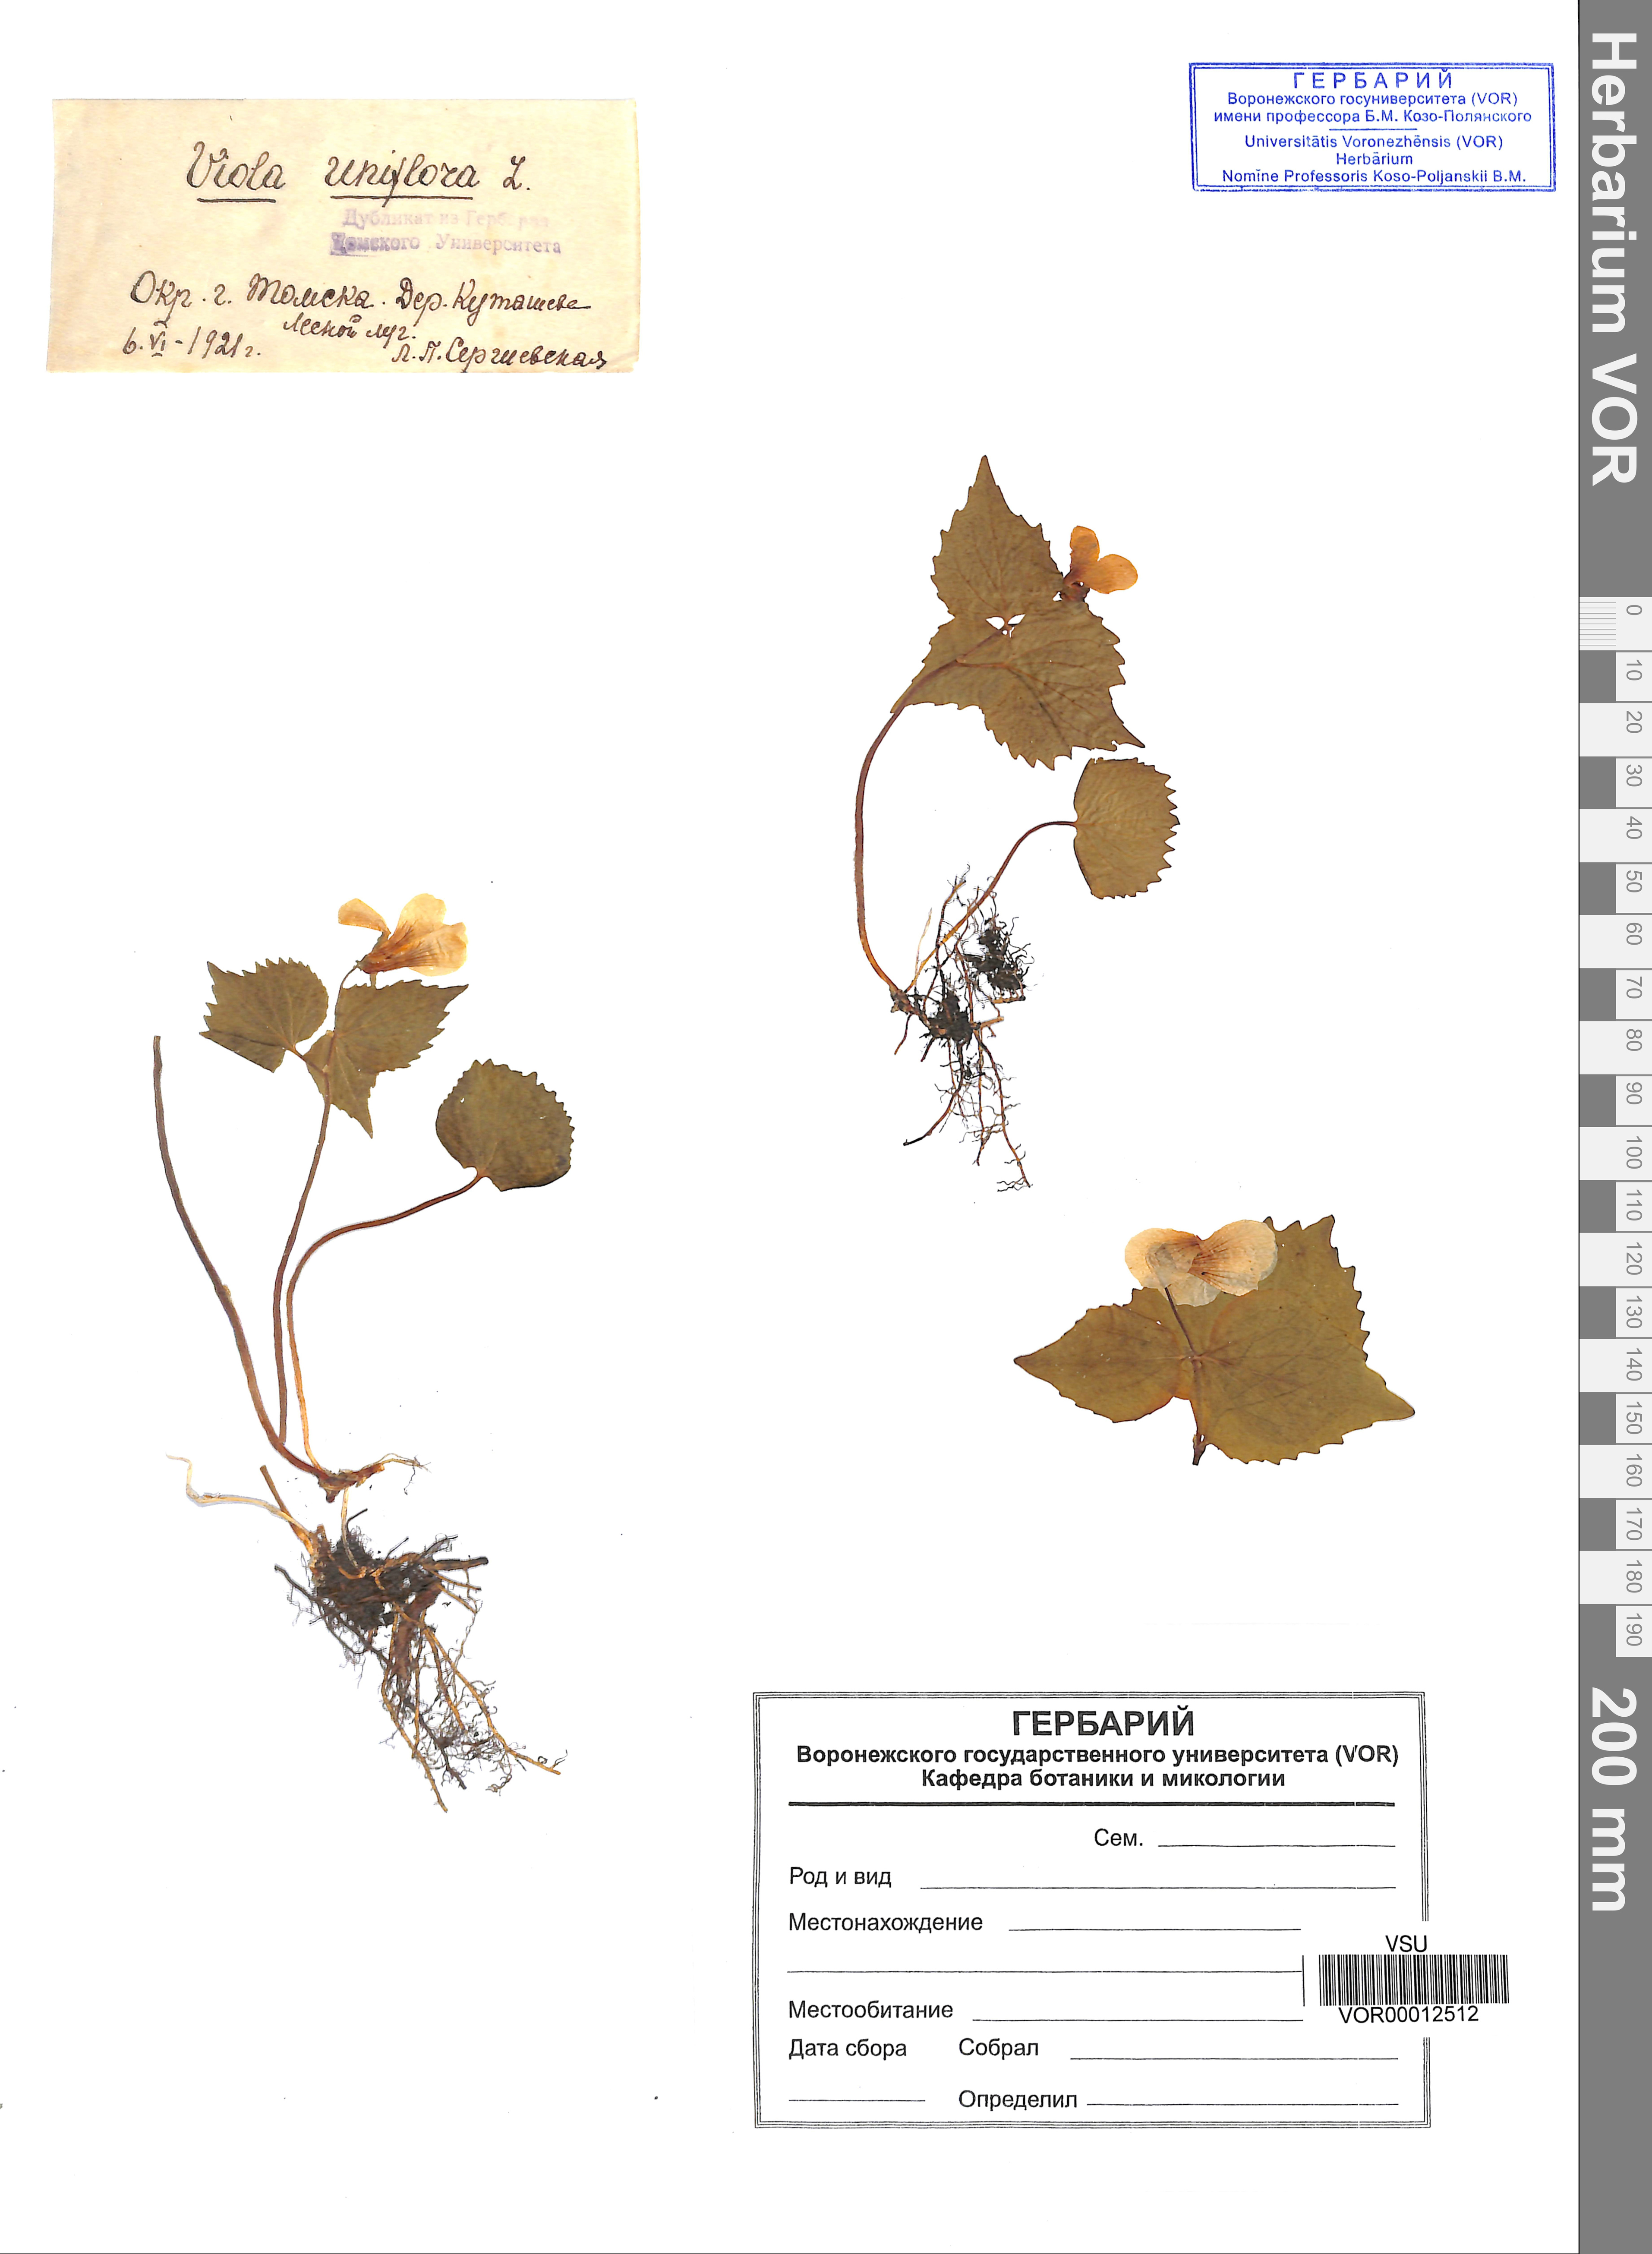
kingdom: Plantae
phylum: Tracheophyta
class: Magnoliopsida
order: Malpighiales
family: Violaceae
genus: Viola
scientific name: Viola uniflora
